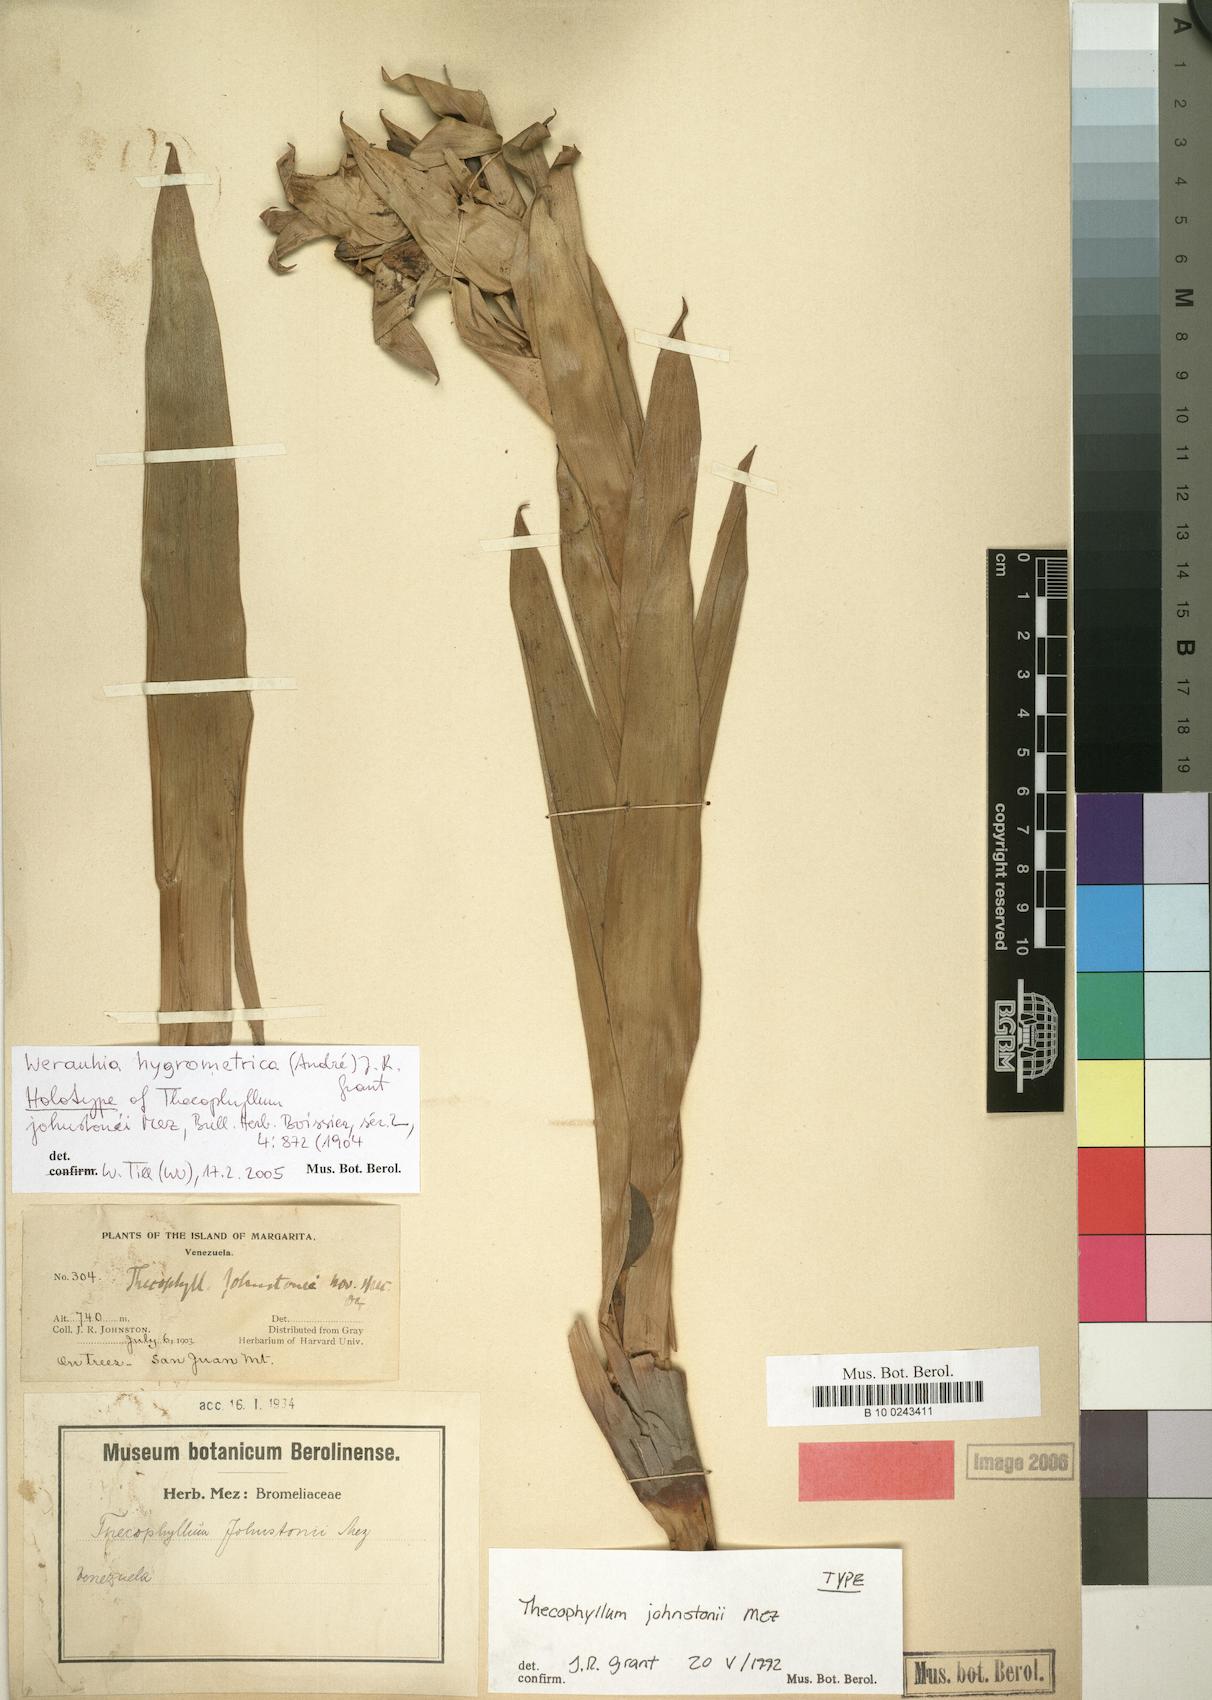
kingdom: Plantae
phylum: Tracheophyta
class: Liliopsida
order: Poales
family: Bromeliaceae
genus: Werauhia
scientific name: Werauhia hygrometrica
